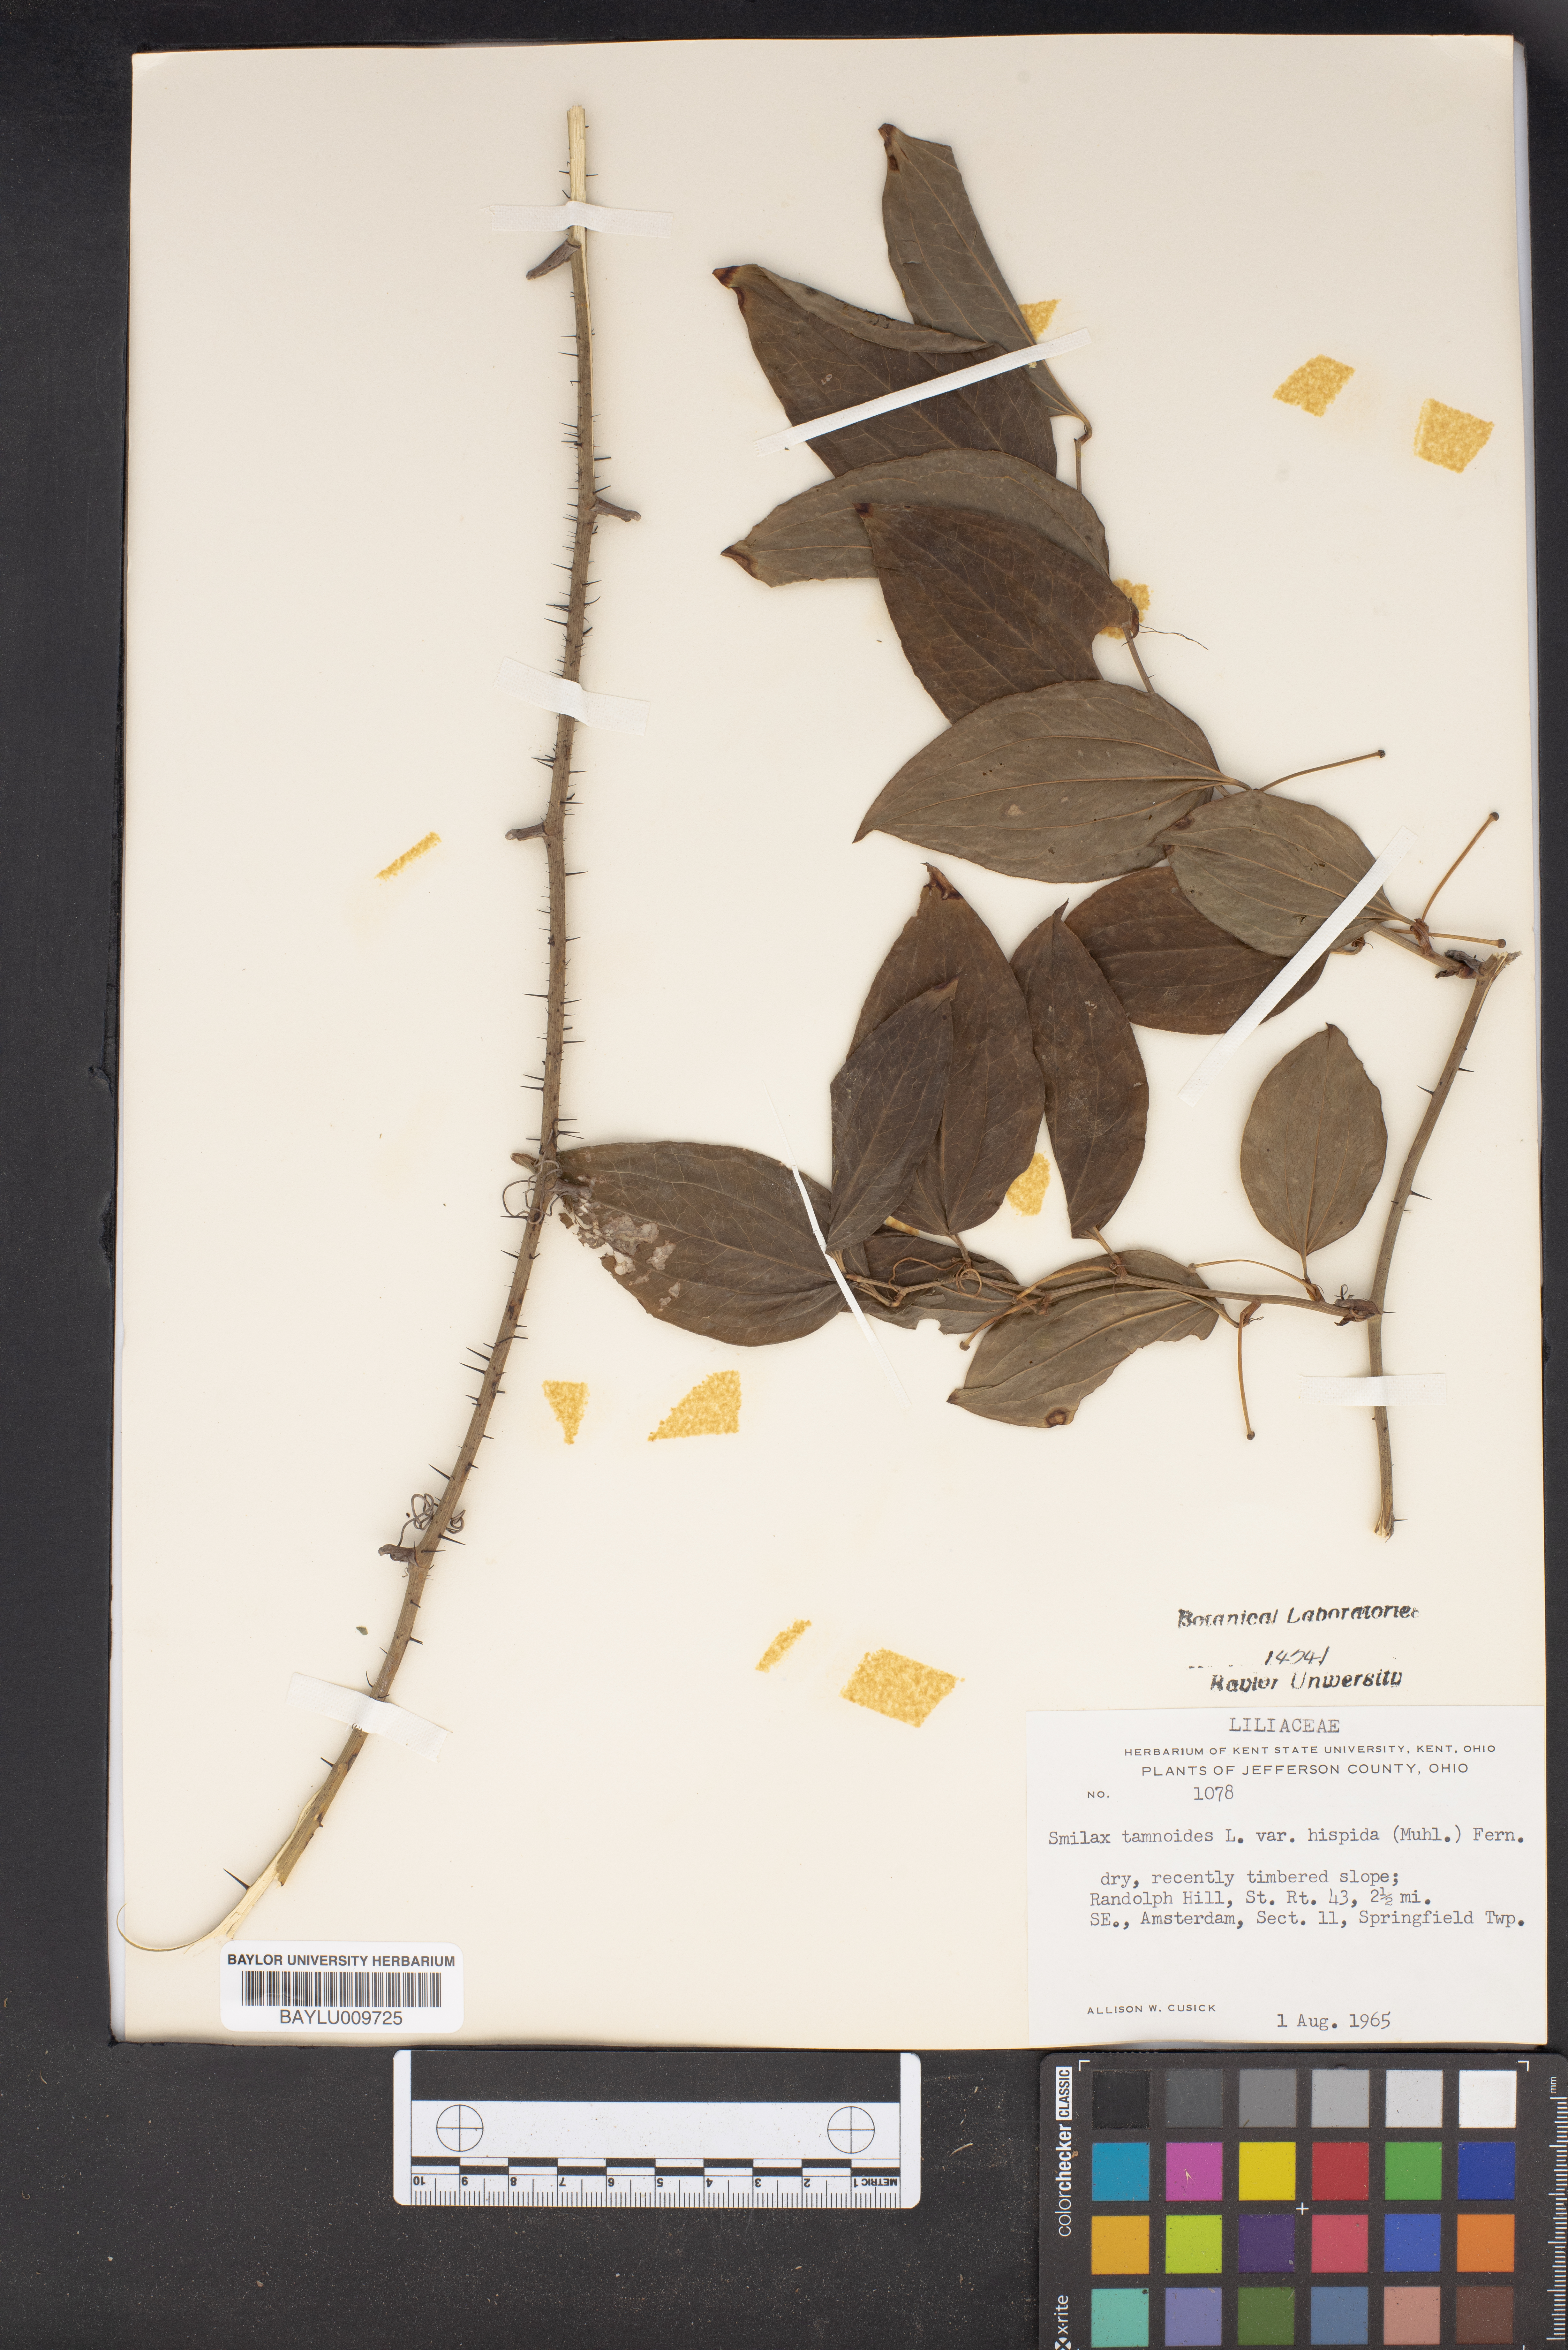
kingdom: Plantae
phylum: Tracheophyta
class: Liliopsida
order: Liliales
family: Smilacaceae
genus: Smilax
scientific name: Smilax tamnoides
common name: Hellfetter
